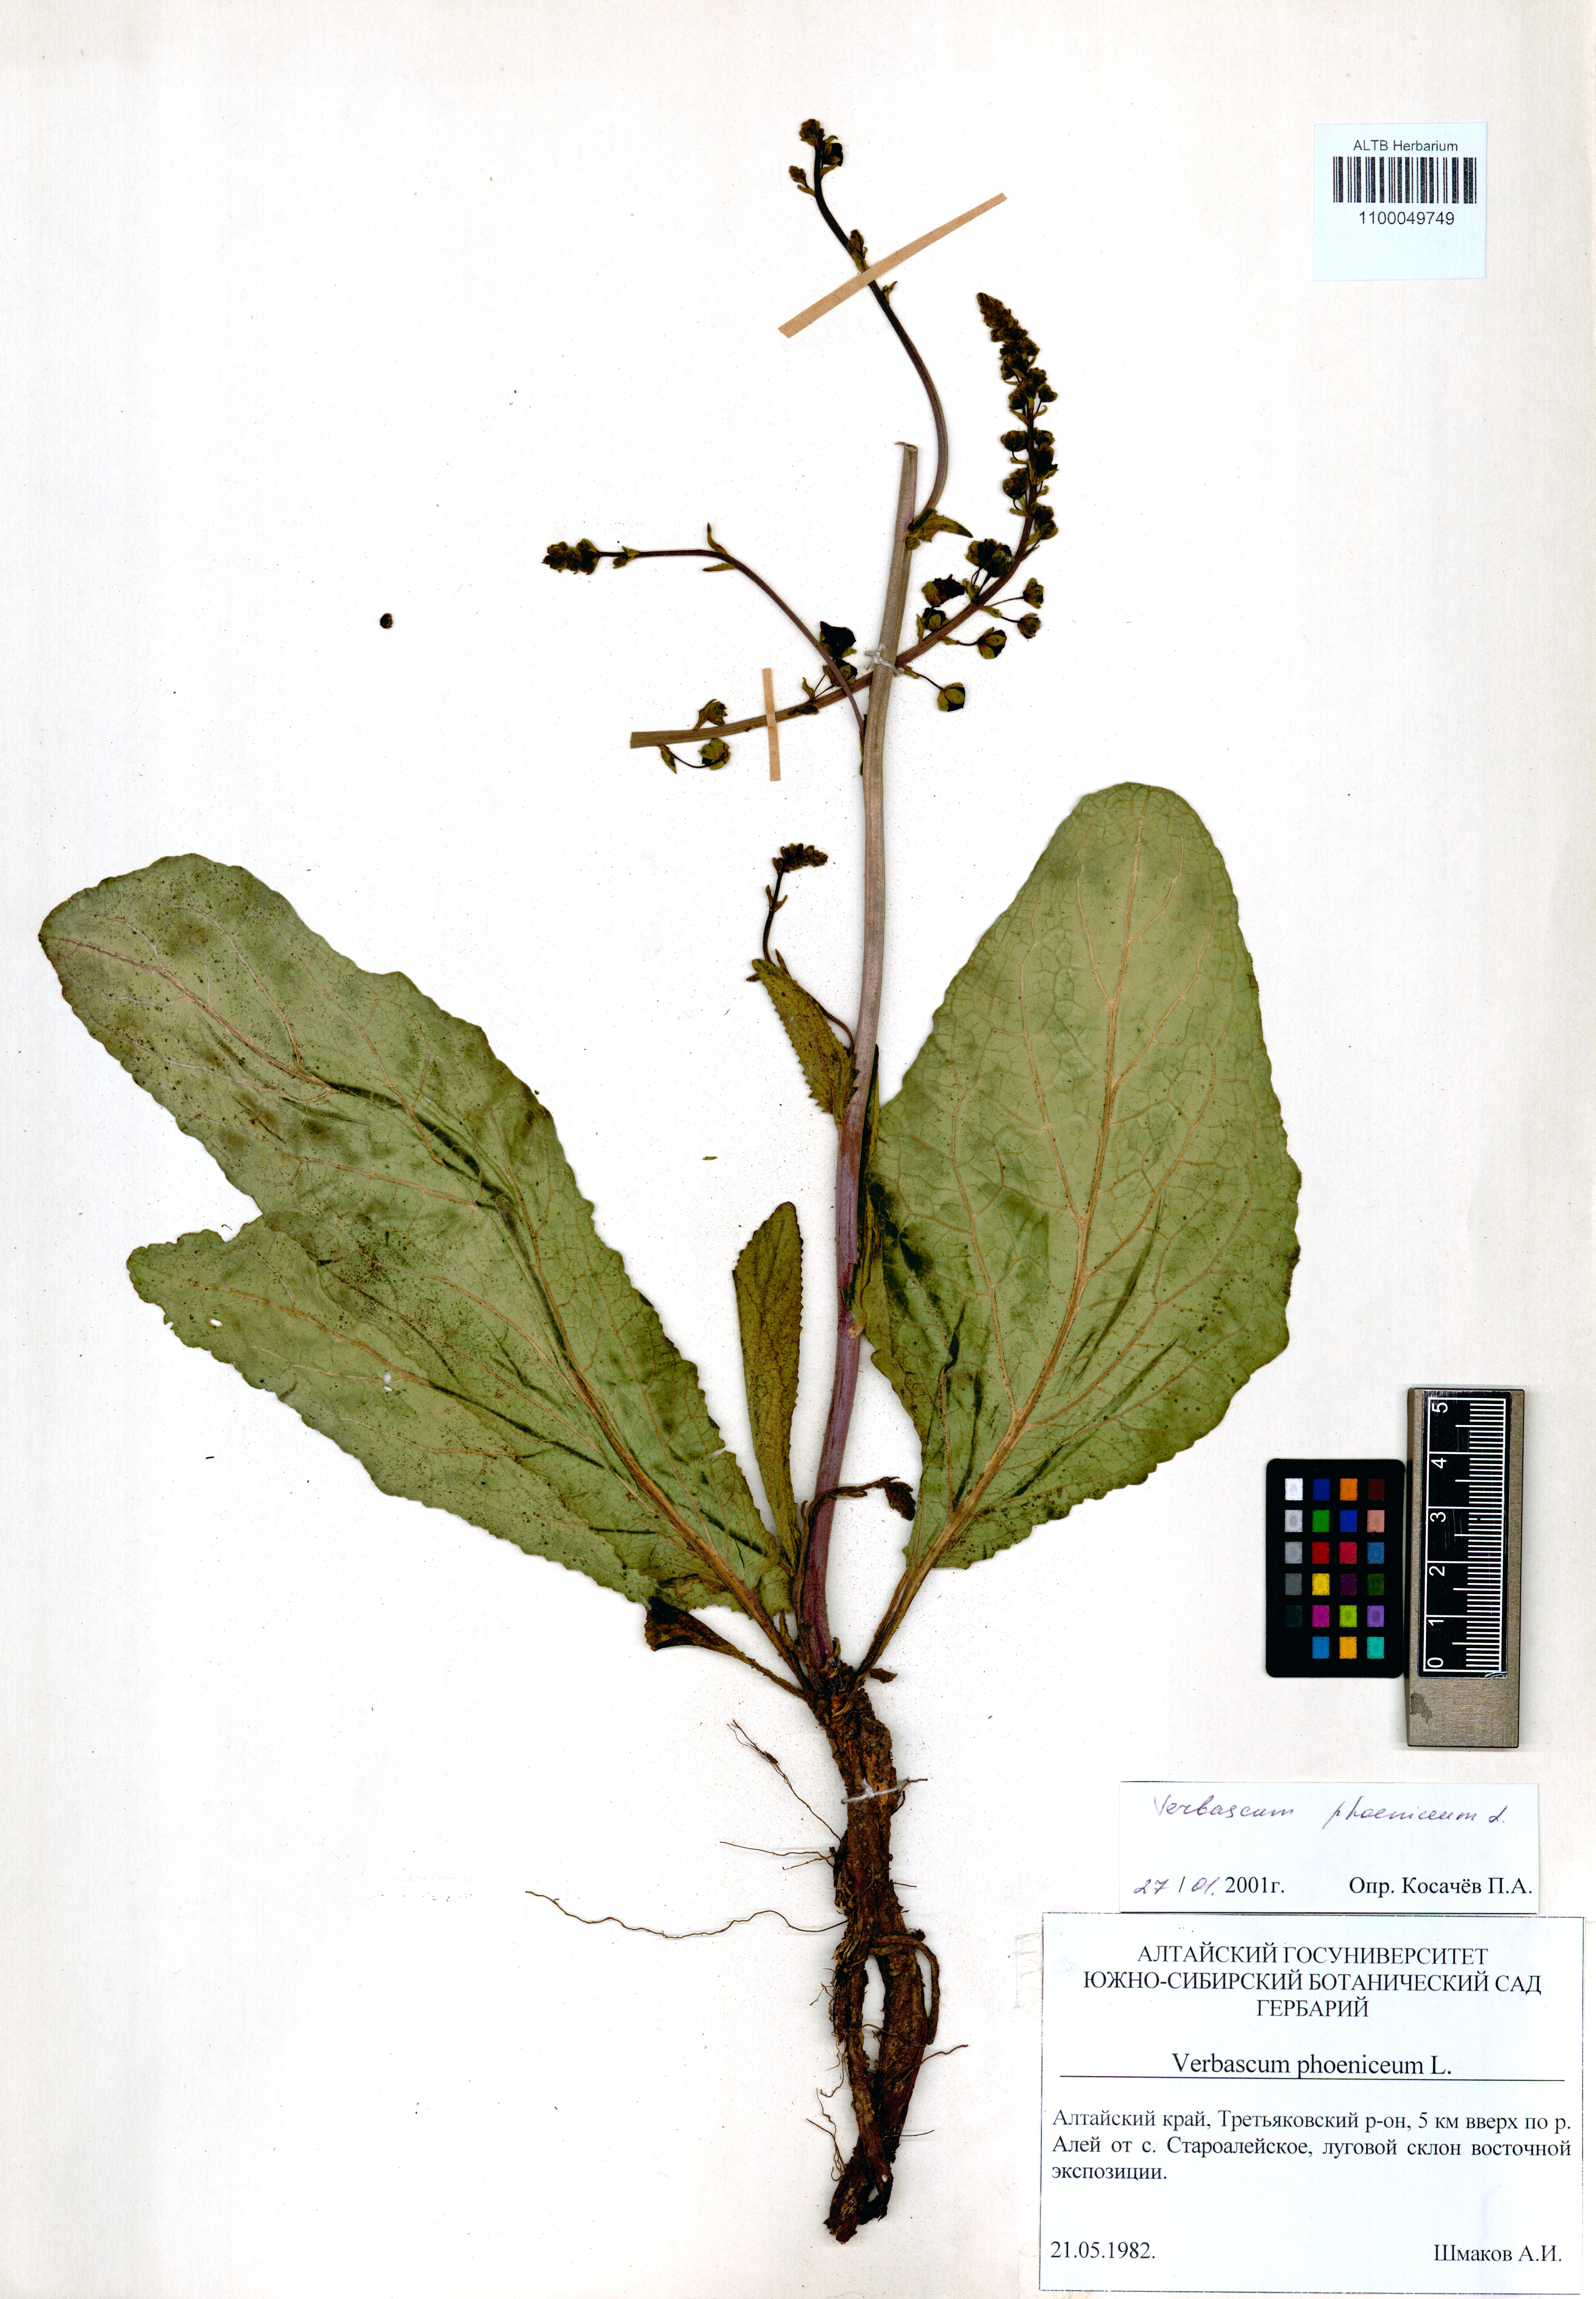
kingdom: Plantae
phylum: Tracheophyta
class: Magnoliopsida
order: Lamiales
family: Scrophulariaceae
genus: Verbascum
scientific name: Verbascum phoeniceum
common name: Purple mullein
